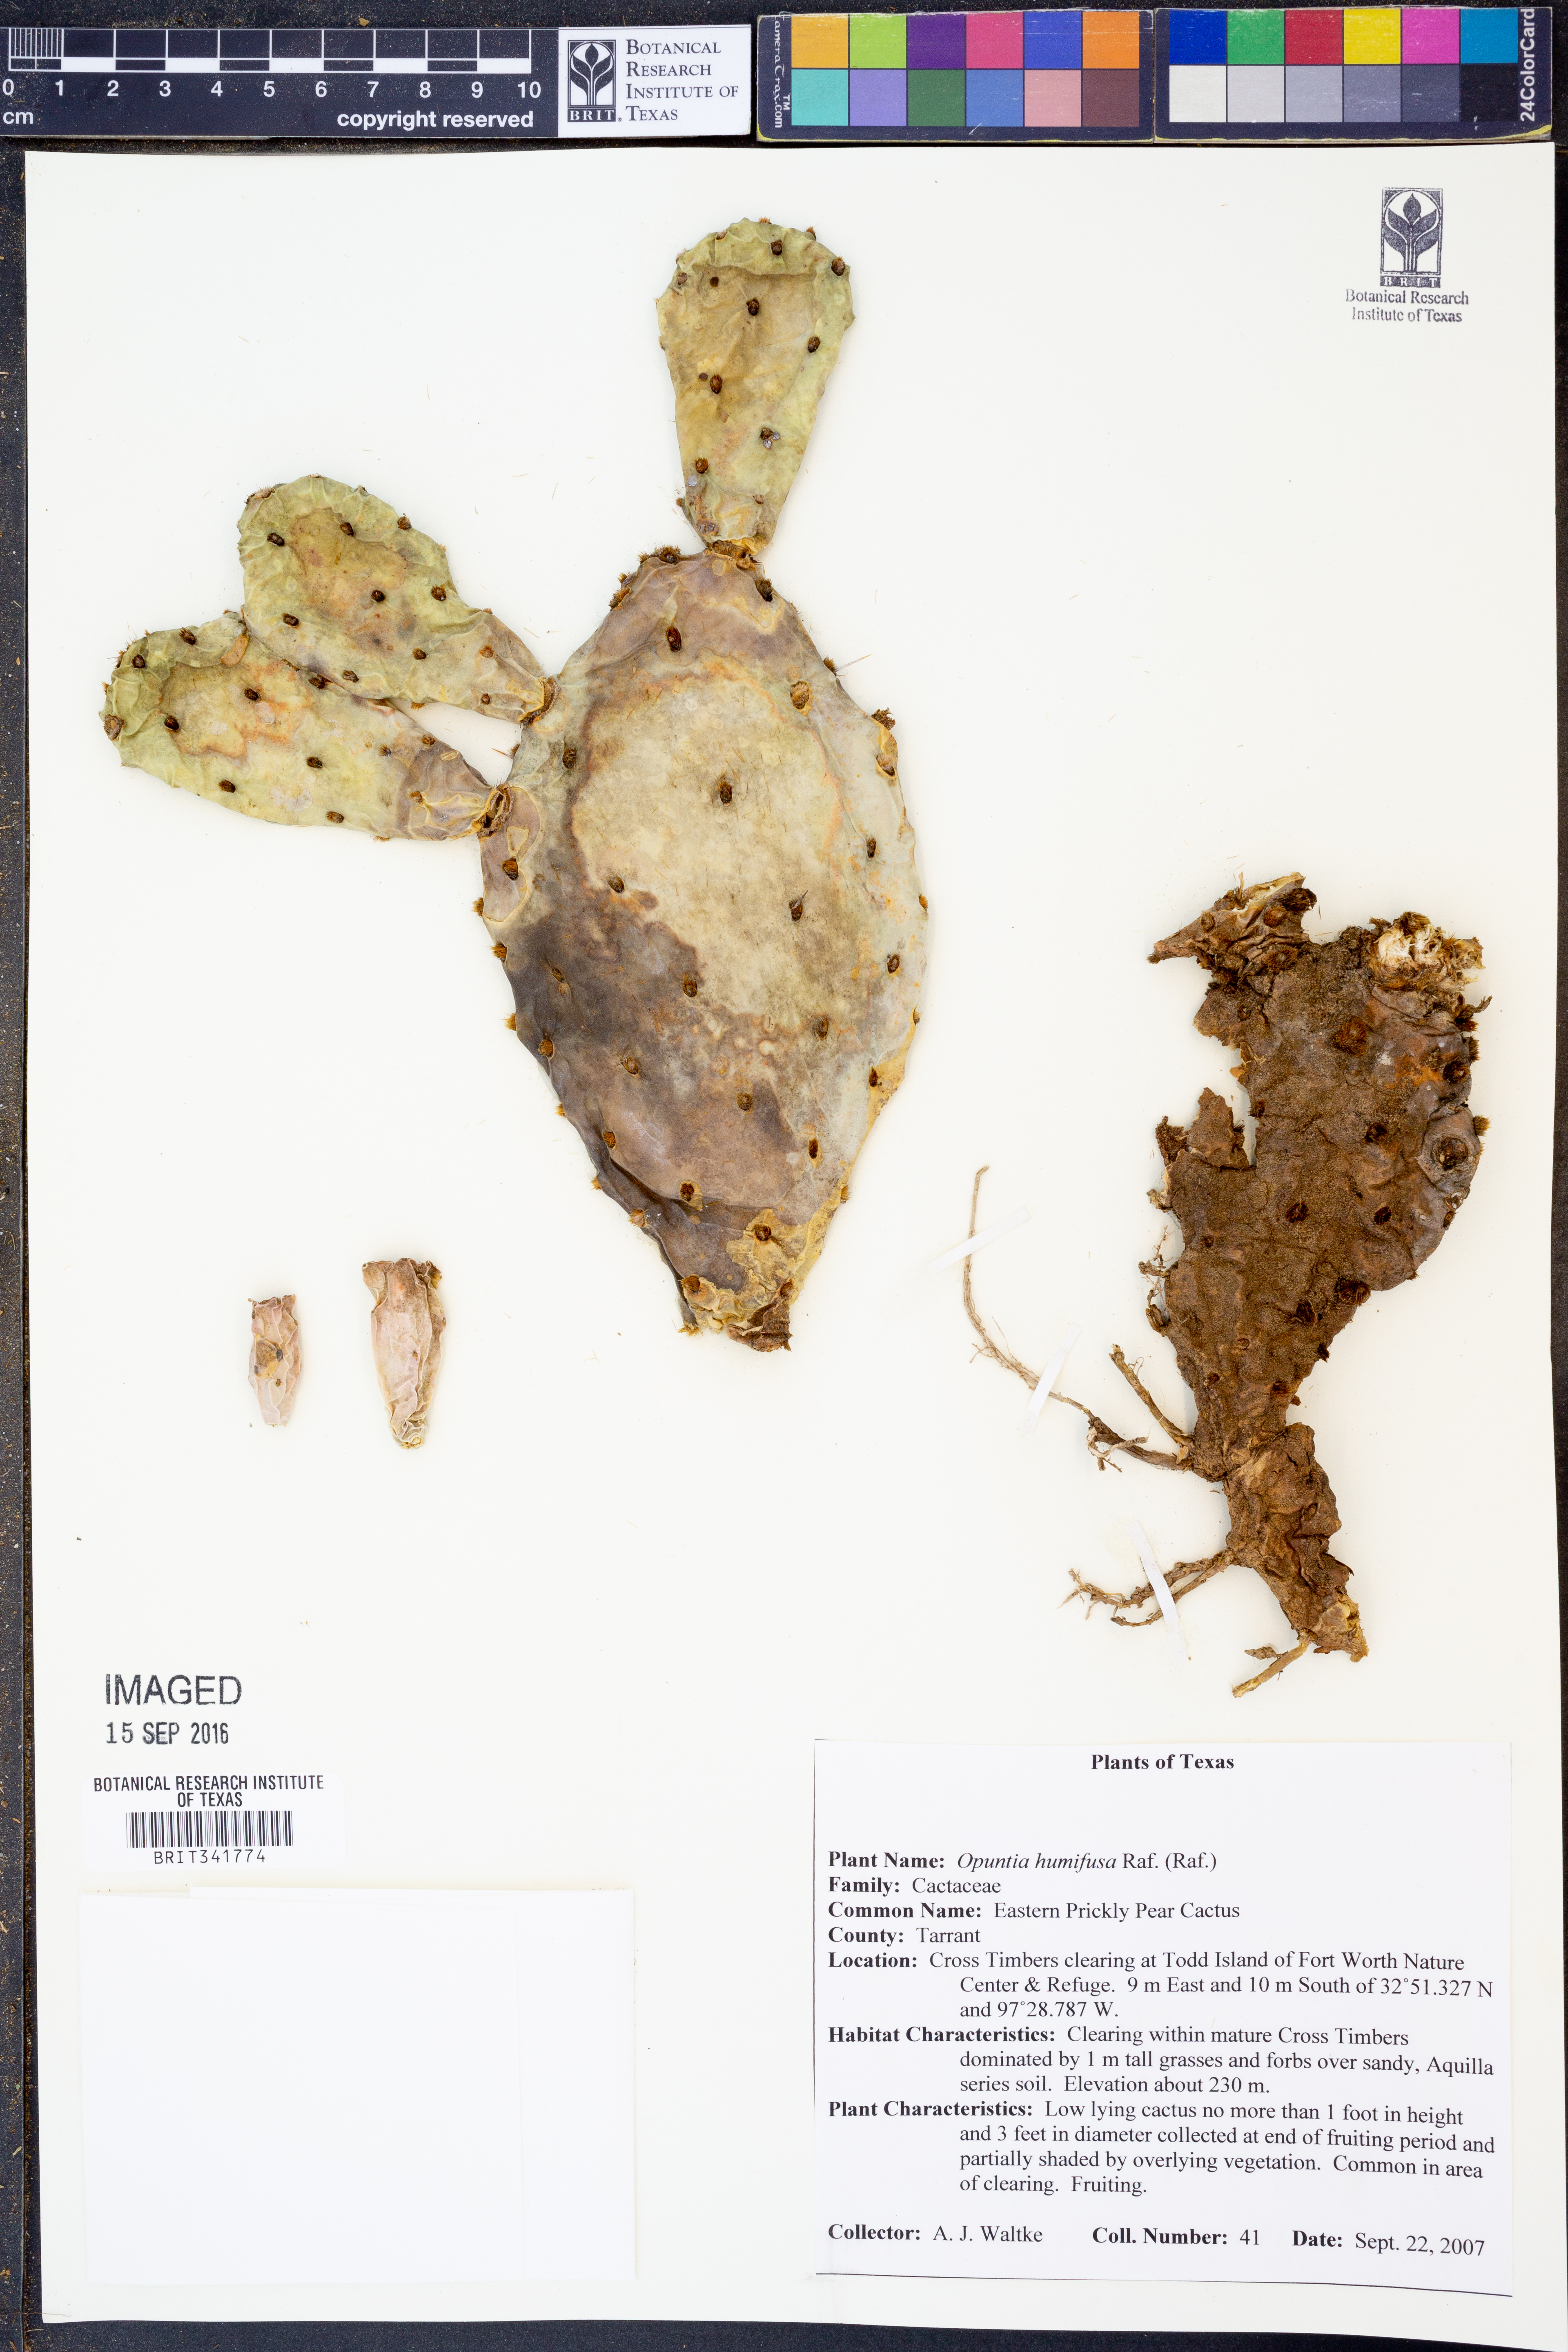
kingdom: Plantae
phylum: Tracheophyta
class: Magnoliopsida
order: Caryophyllales
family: Cactaceae
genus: Opuntia
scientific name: Opuntia humifusa
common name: Eastern prickly-pear
